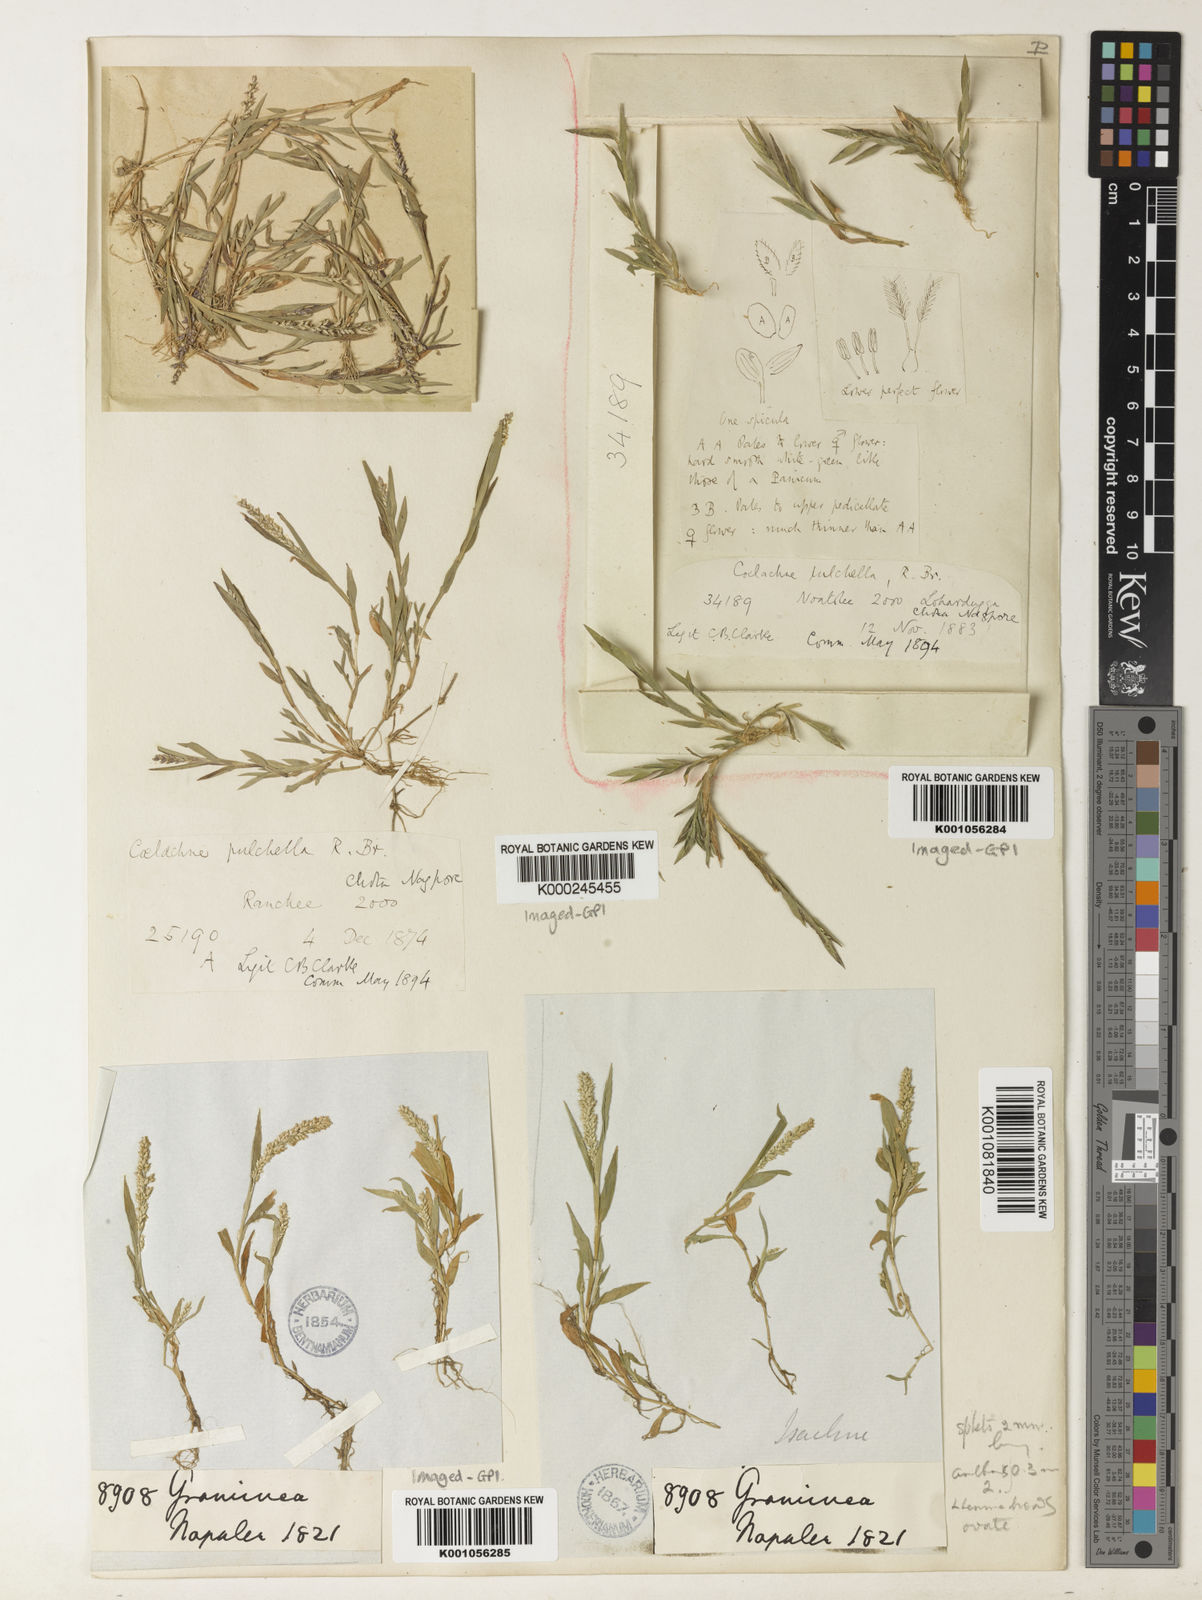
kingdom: Plantae
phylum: Tracheophyta
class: Liliopsida
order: Poales
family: Poaceae
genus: Coelachne
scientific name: Coelachne simpliciuscula
